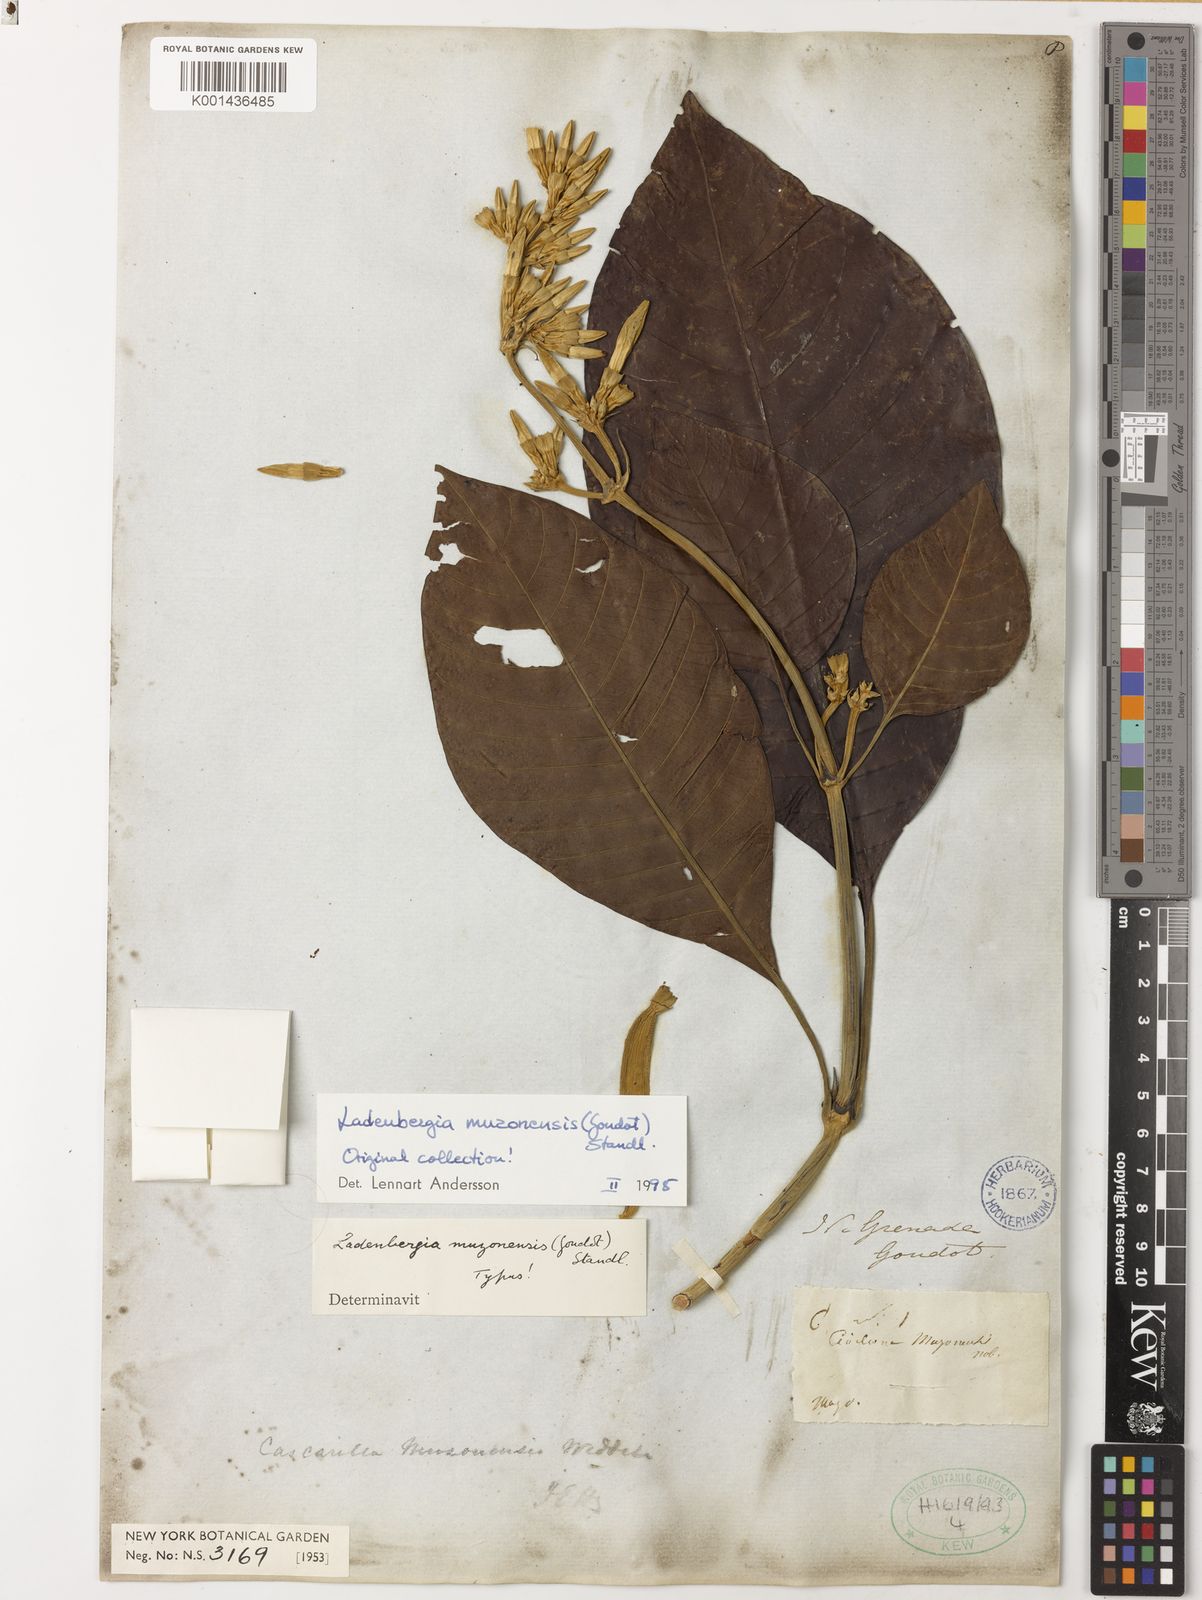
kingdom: Plantae
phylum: Tracheophyta
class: Magnoliopsida
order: Gentianales
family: Rubiaceae
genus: Ladenbergia
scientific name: Ladenbergia muzonensis
